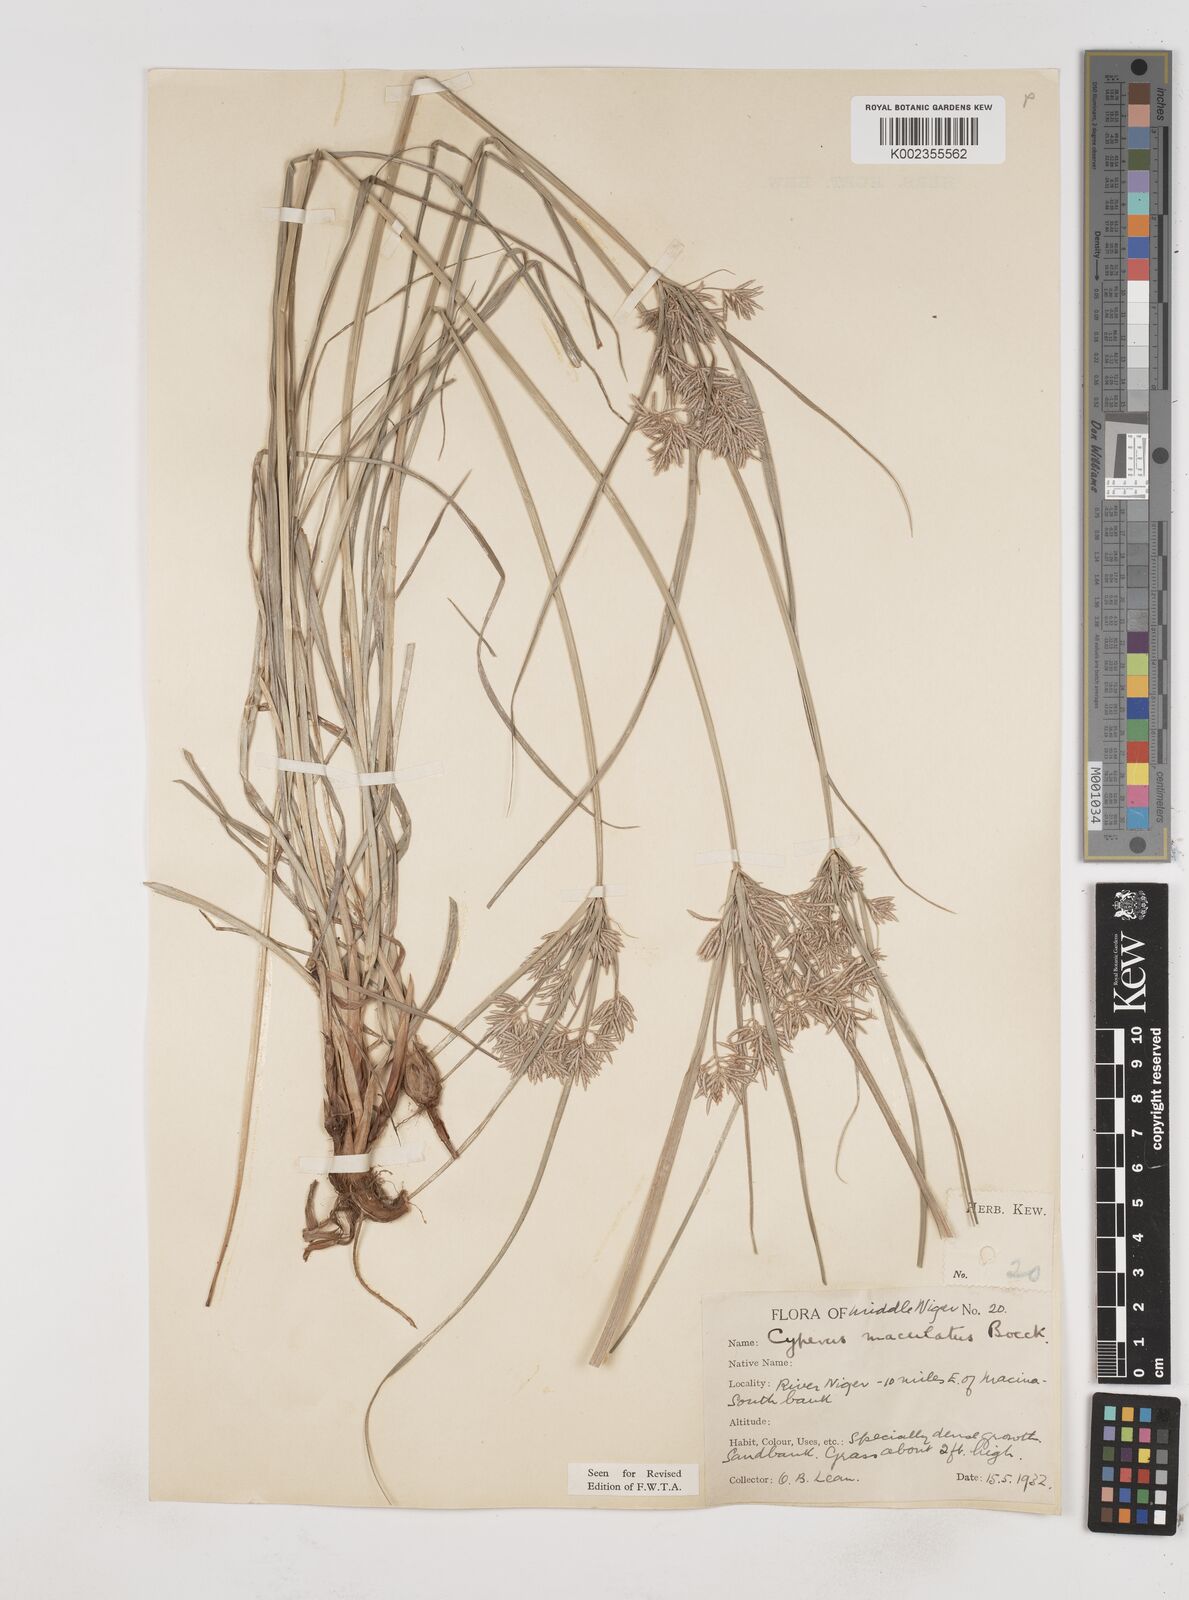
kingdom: Plantae
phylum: Tracheophyta
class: Liliopsida
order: Poales
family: Cyperaceae
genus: Cyperus
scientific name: Cyperus maculatus
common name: Maculated sedge
